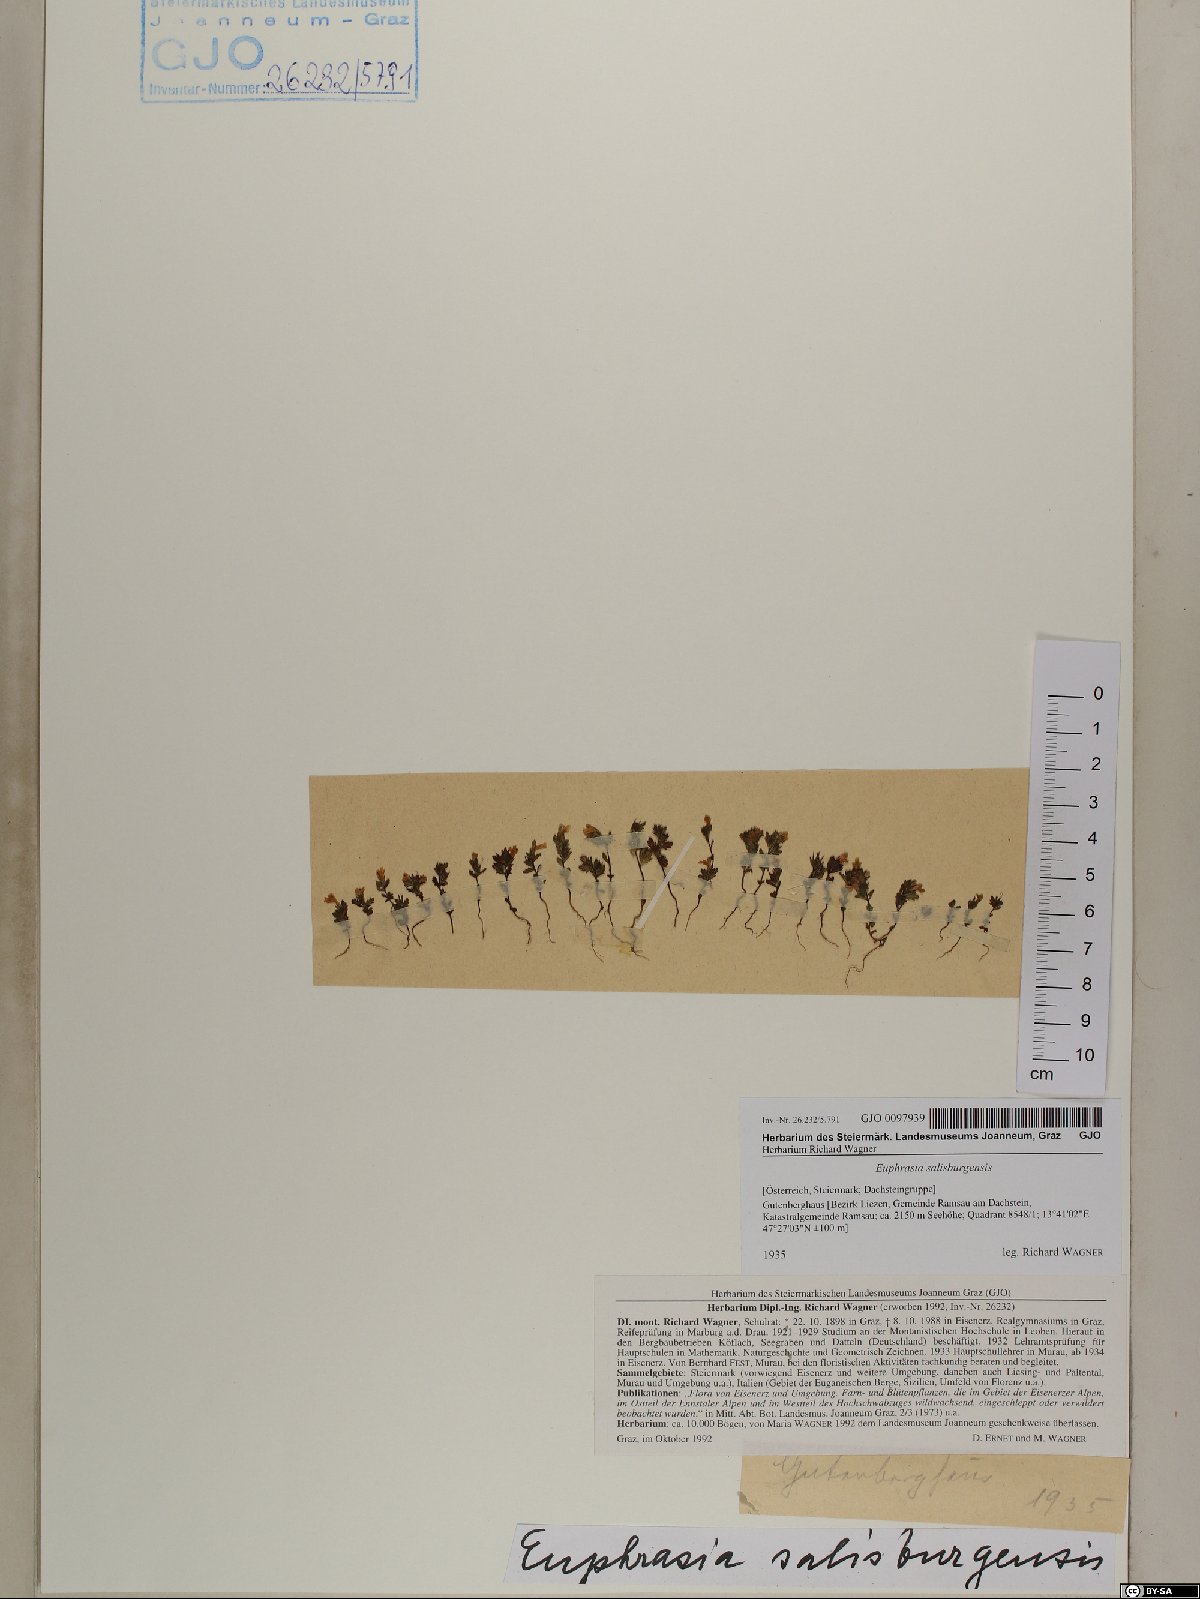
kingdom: Plantae
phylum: Tracheophyta
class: Magnoliopsida
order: Lamiales
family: Orobanchaceae
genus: Euphrasia
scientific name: Euphrasia salisburgensis
